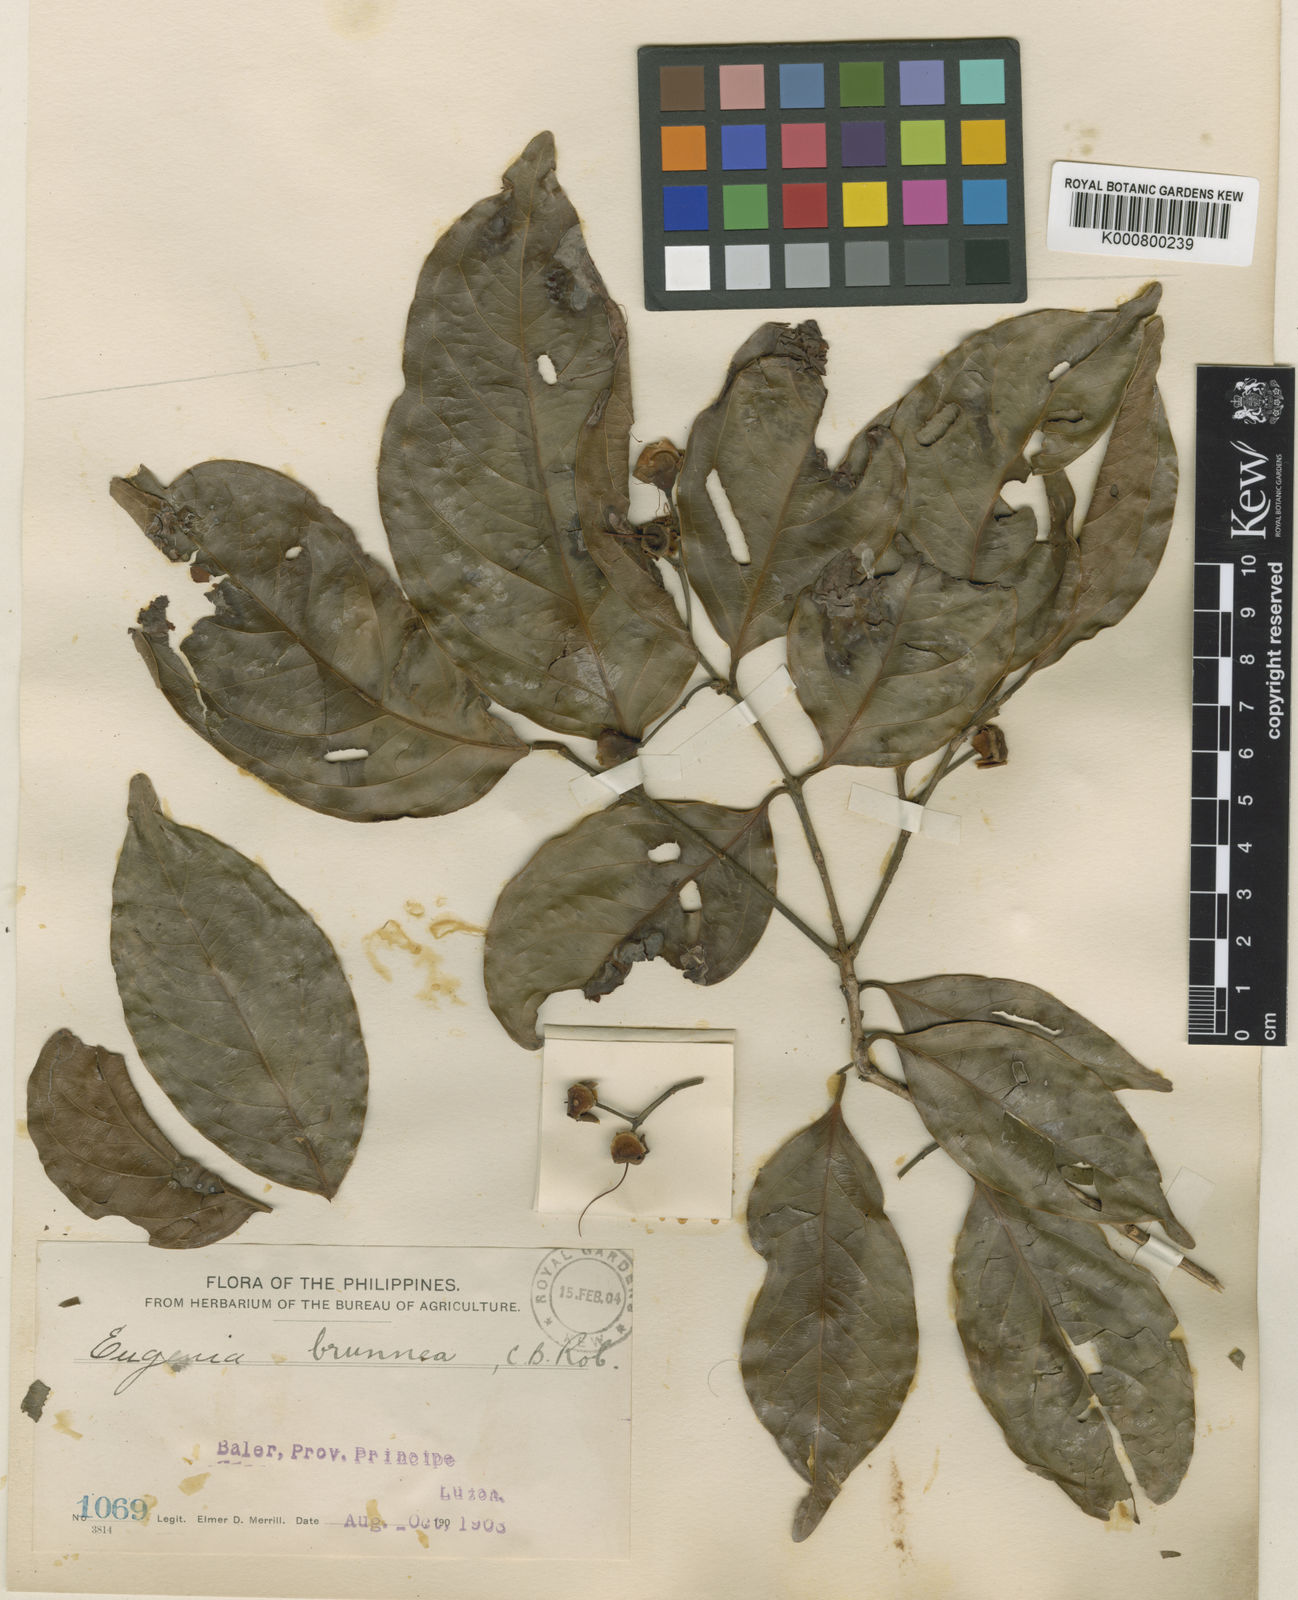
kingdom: Plantae
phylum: Tracheophyta
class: Magnoliopsida
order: Myrtales
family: Myrtaceae
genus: Syzygium
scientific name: Syzygium balerense
